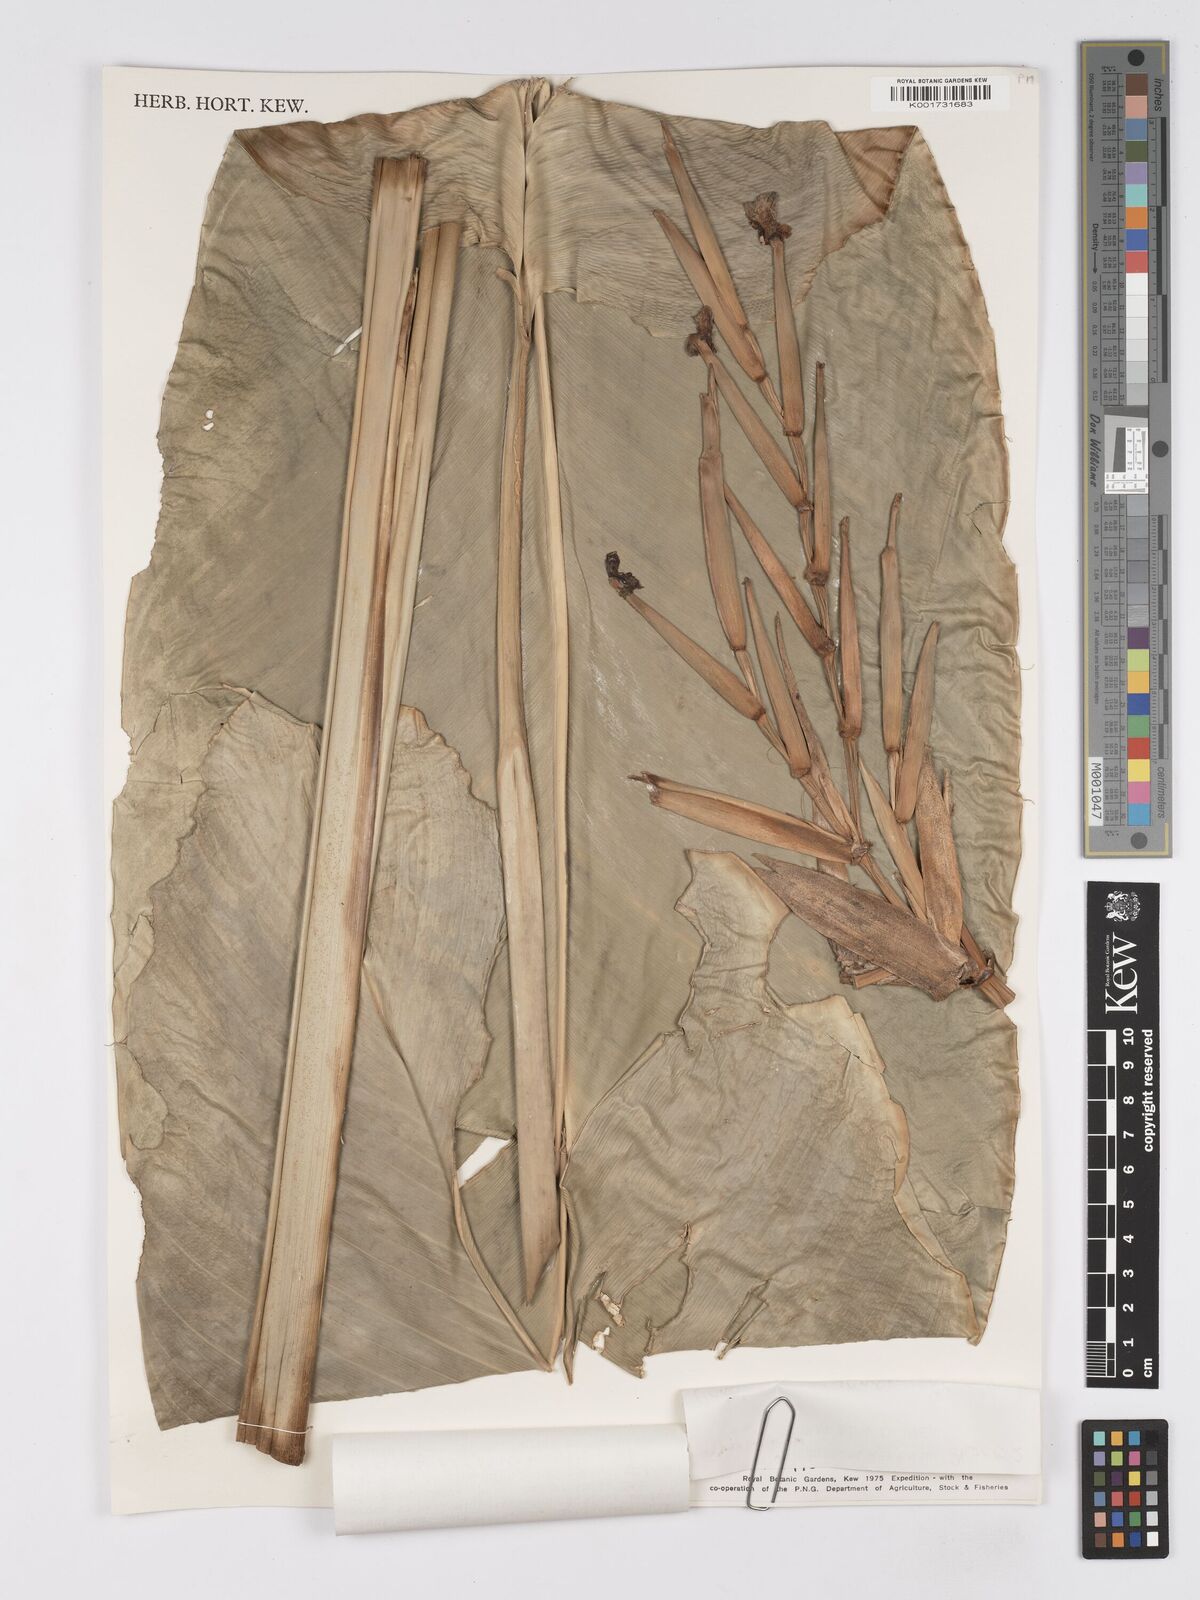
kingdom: Plantae
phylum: Tracheophyta
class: Liliopsida
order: Zingiberales
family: Marantaceae
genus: Phrynium
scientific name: Phrynium giganteum
